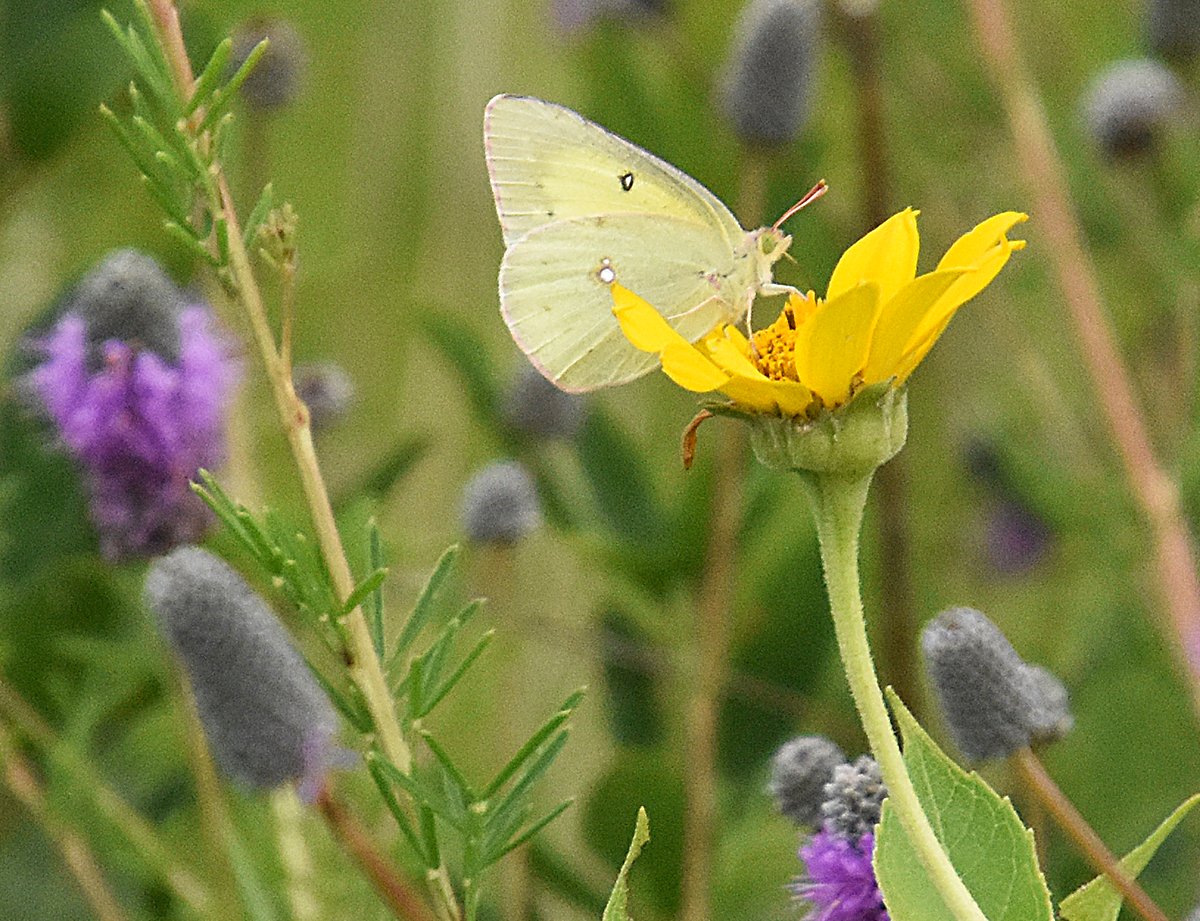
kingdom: Animalia
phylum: Arthropoda
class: Insecta
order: Lepidoptera
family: Pieridae
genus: Colias
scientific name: Colias philodice
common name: Clouded Sulphur
